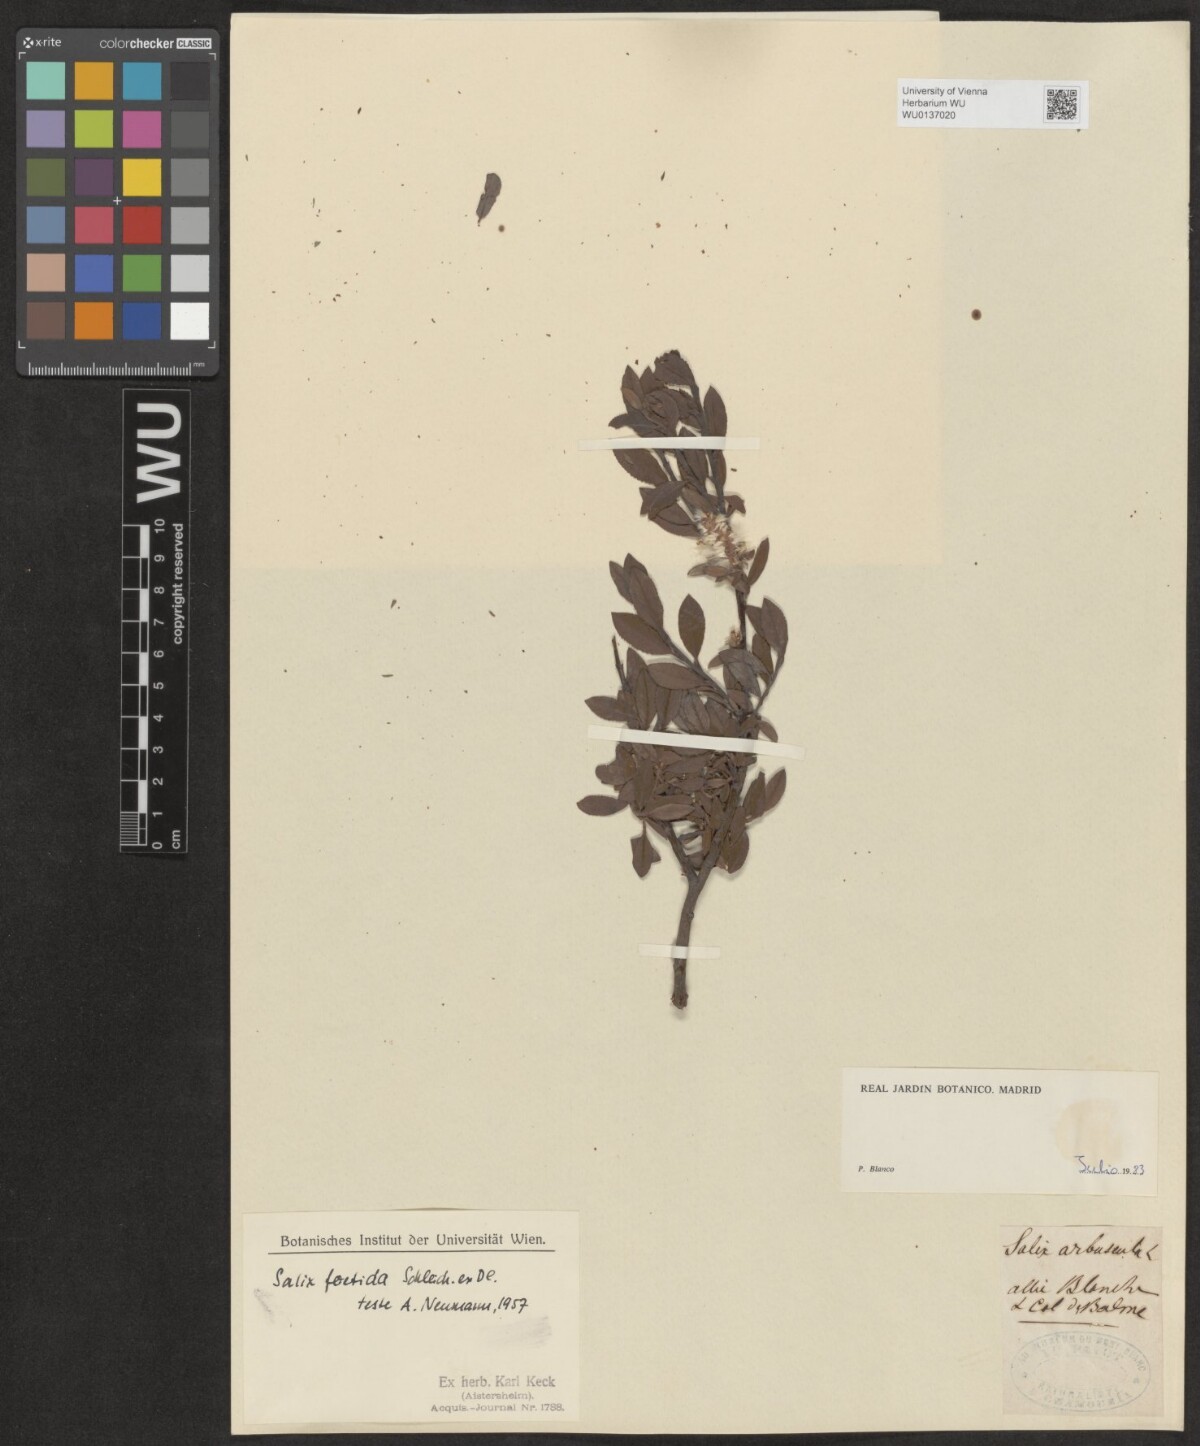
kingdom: Plantae
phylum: Tracheophyta
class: Magnoliopsida
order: Malpighiales
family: Salicaceae
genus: Salix
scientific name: Salix foetida
